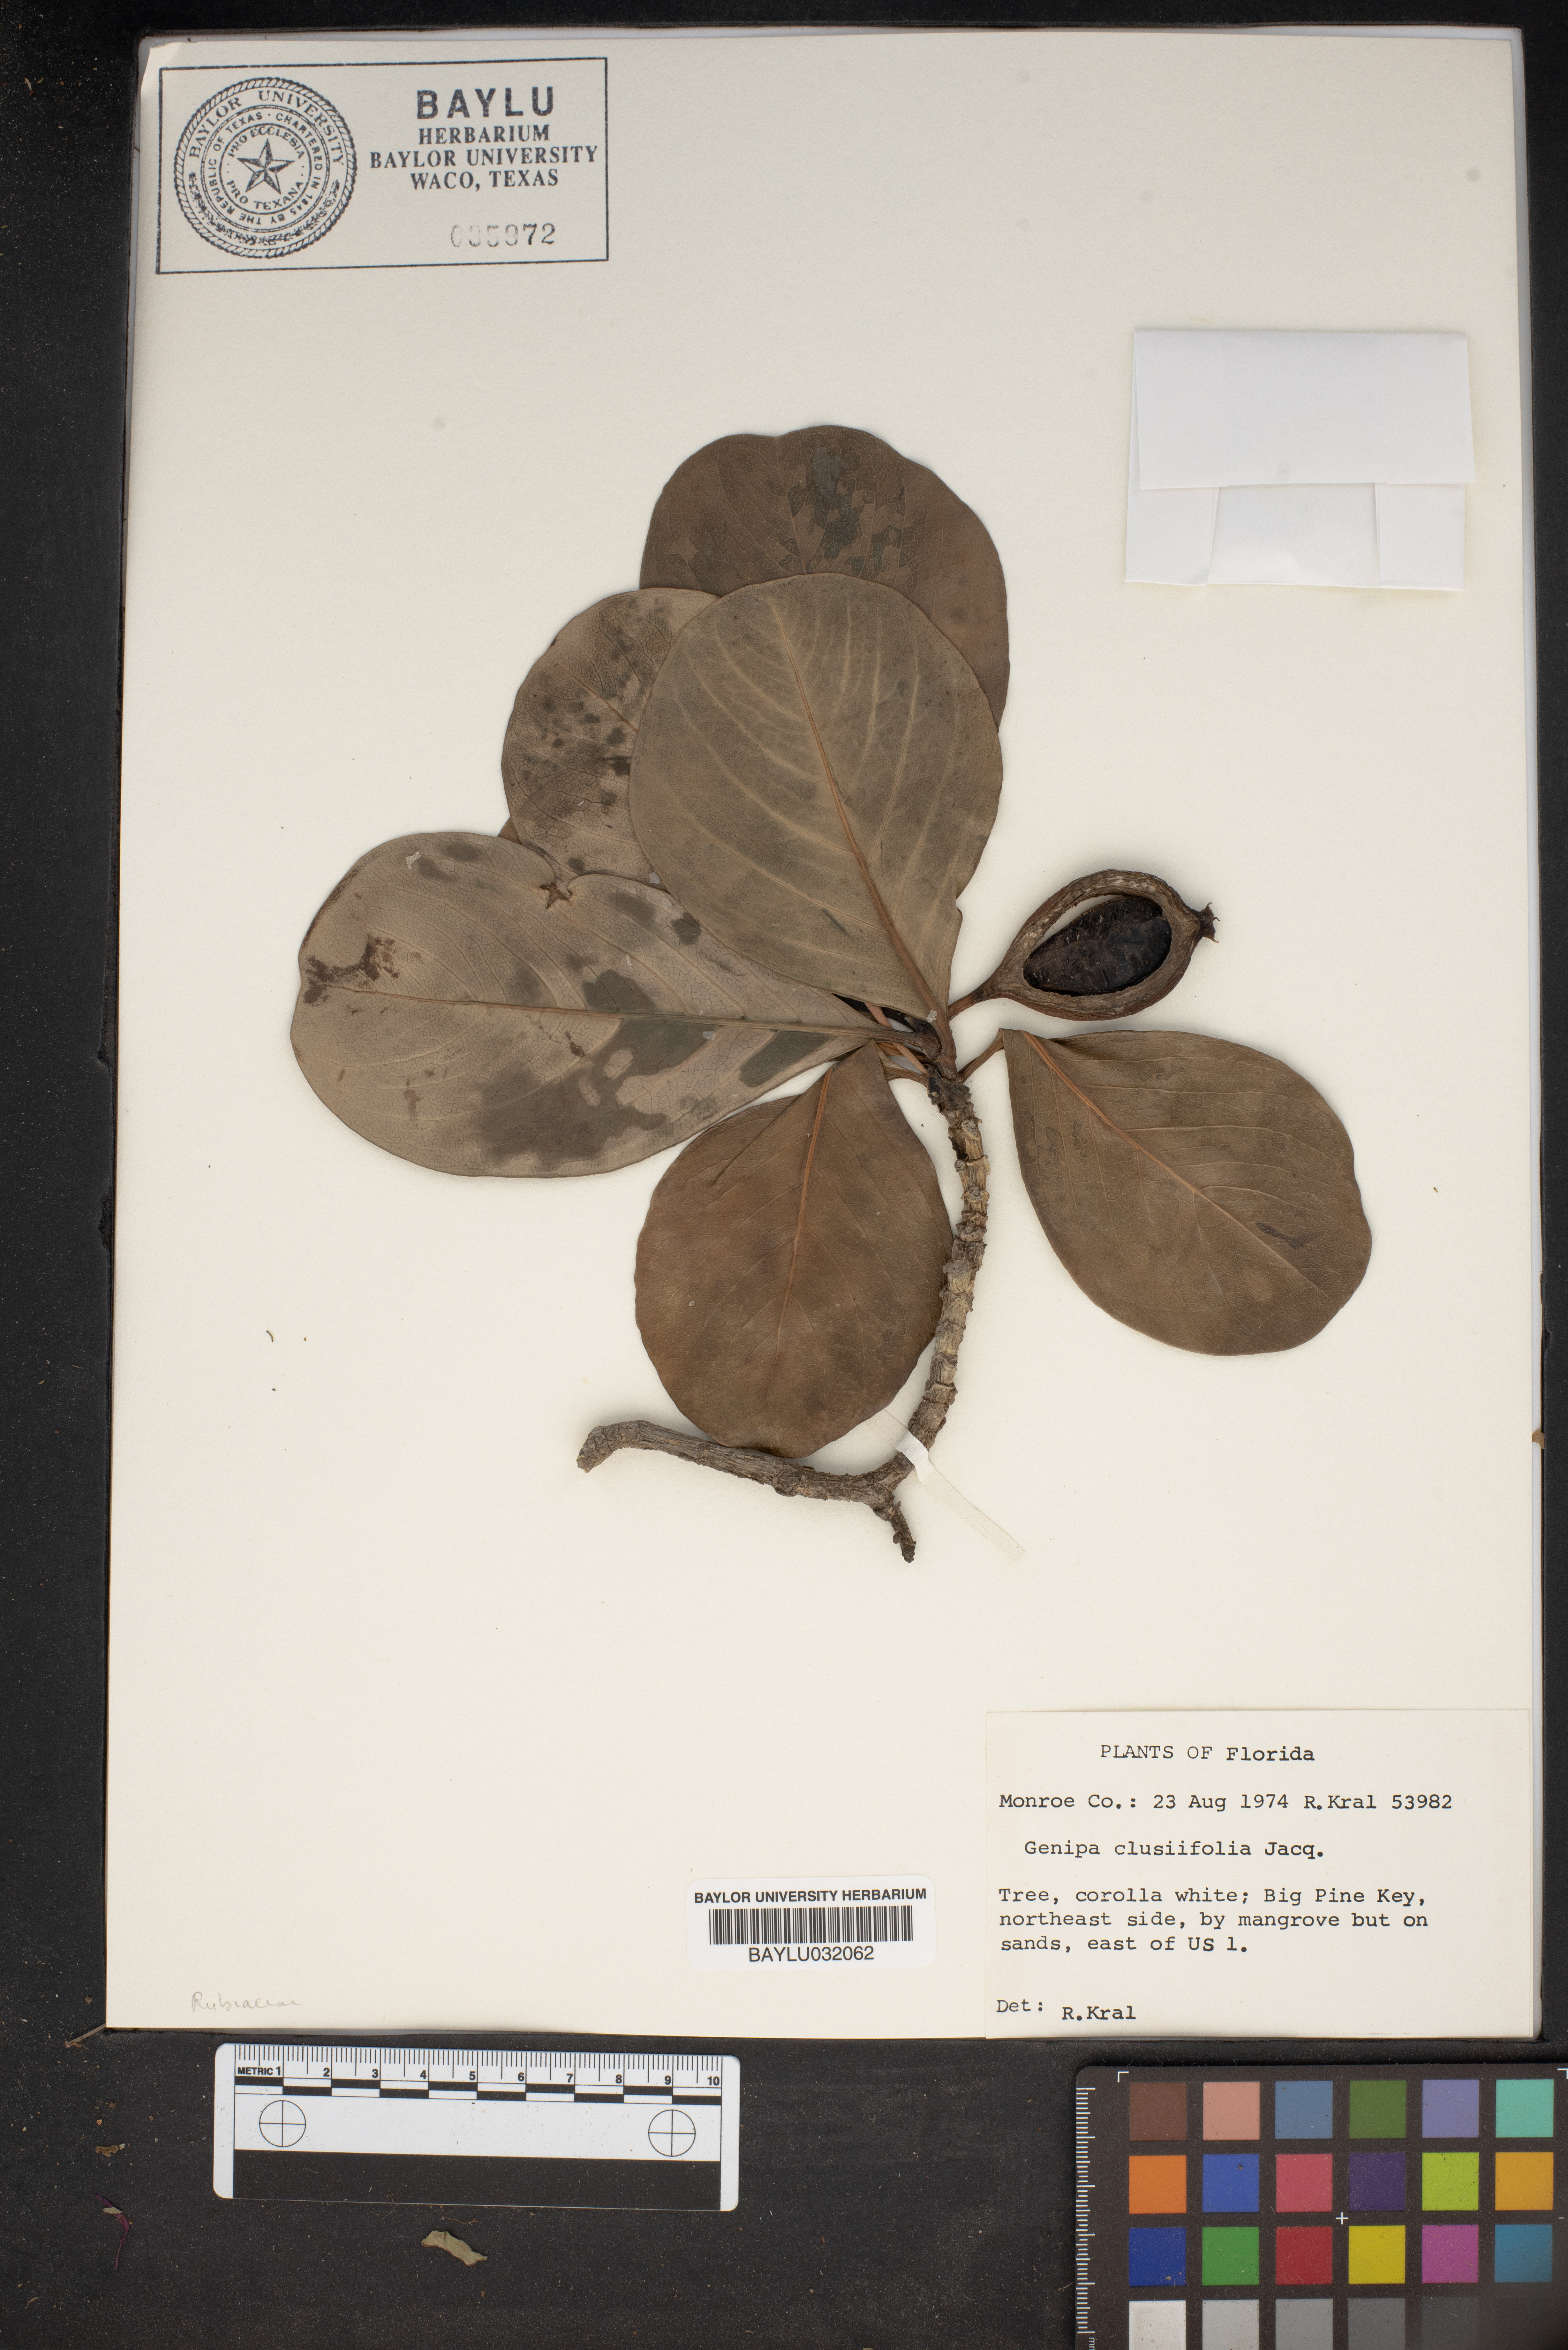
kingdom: Plantae
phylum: Tracheophyta
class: Magnoliopsida
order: Gentianales
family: Rubiaceae
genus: Casasia
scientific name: Casasia clusiifolia
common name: Seven-year apple
